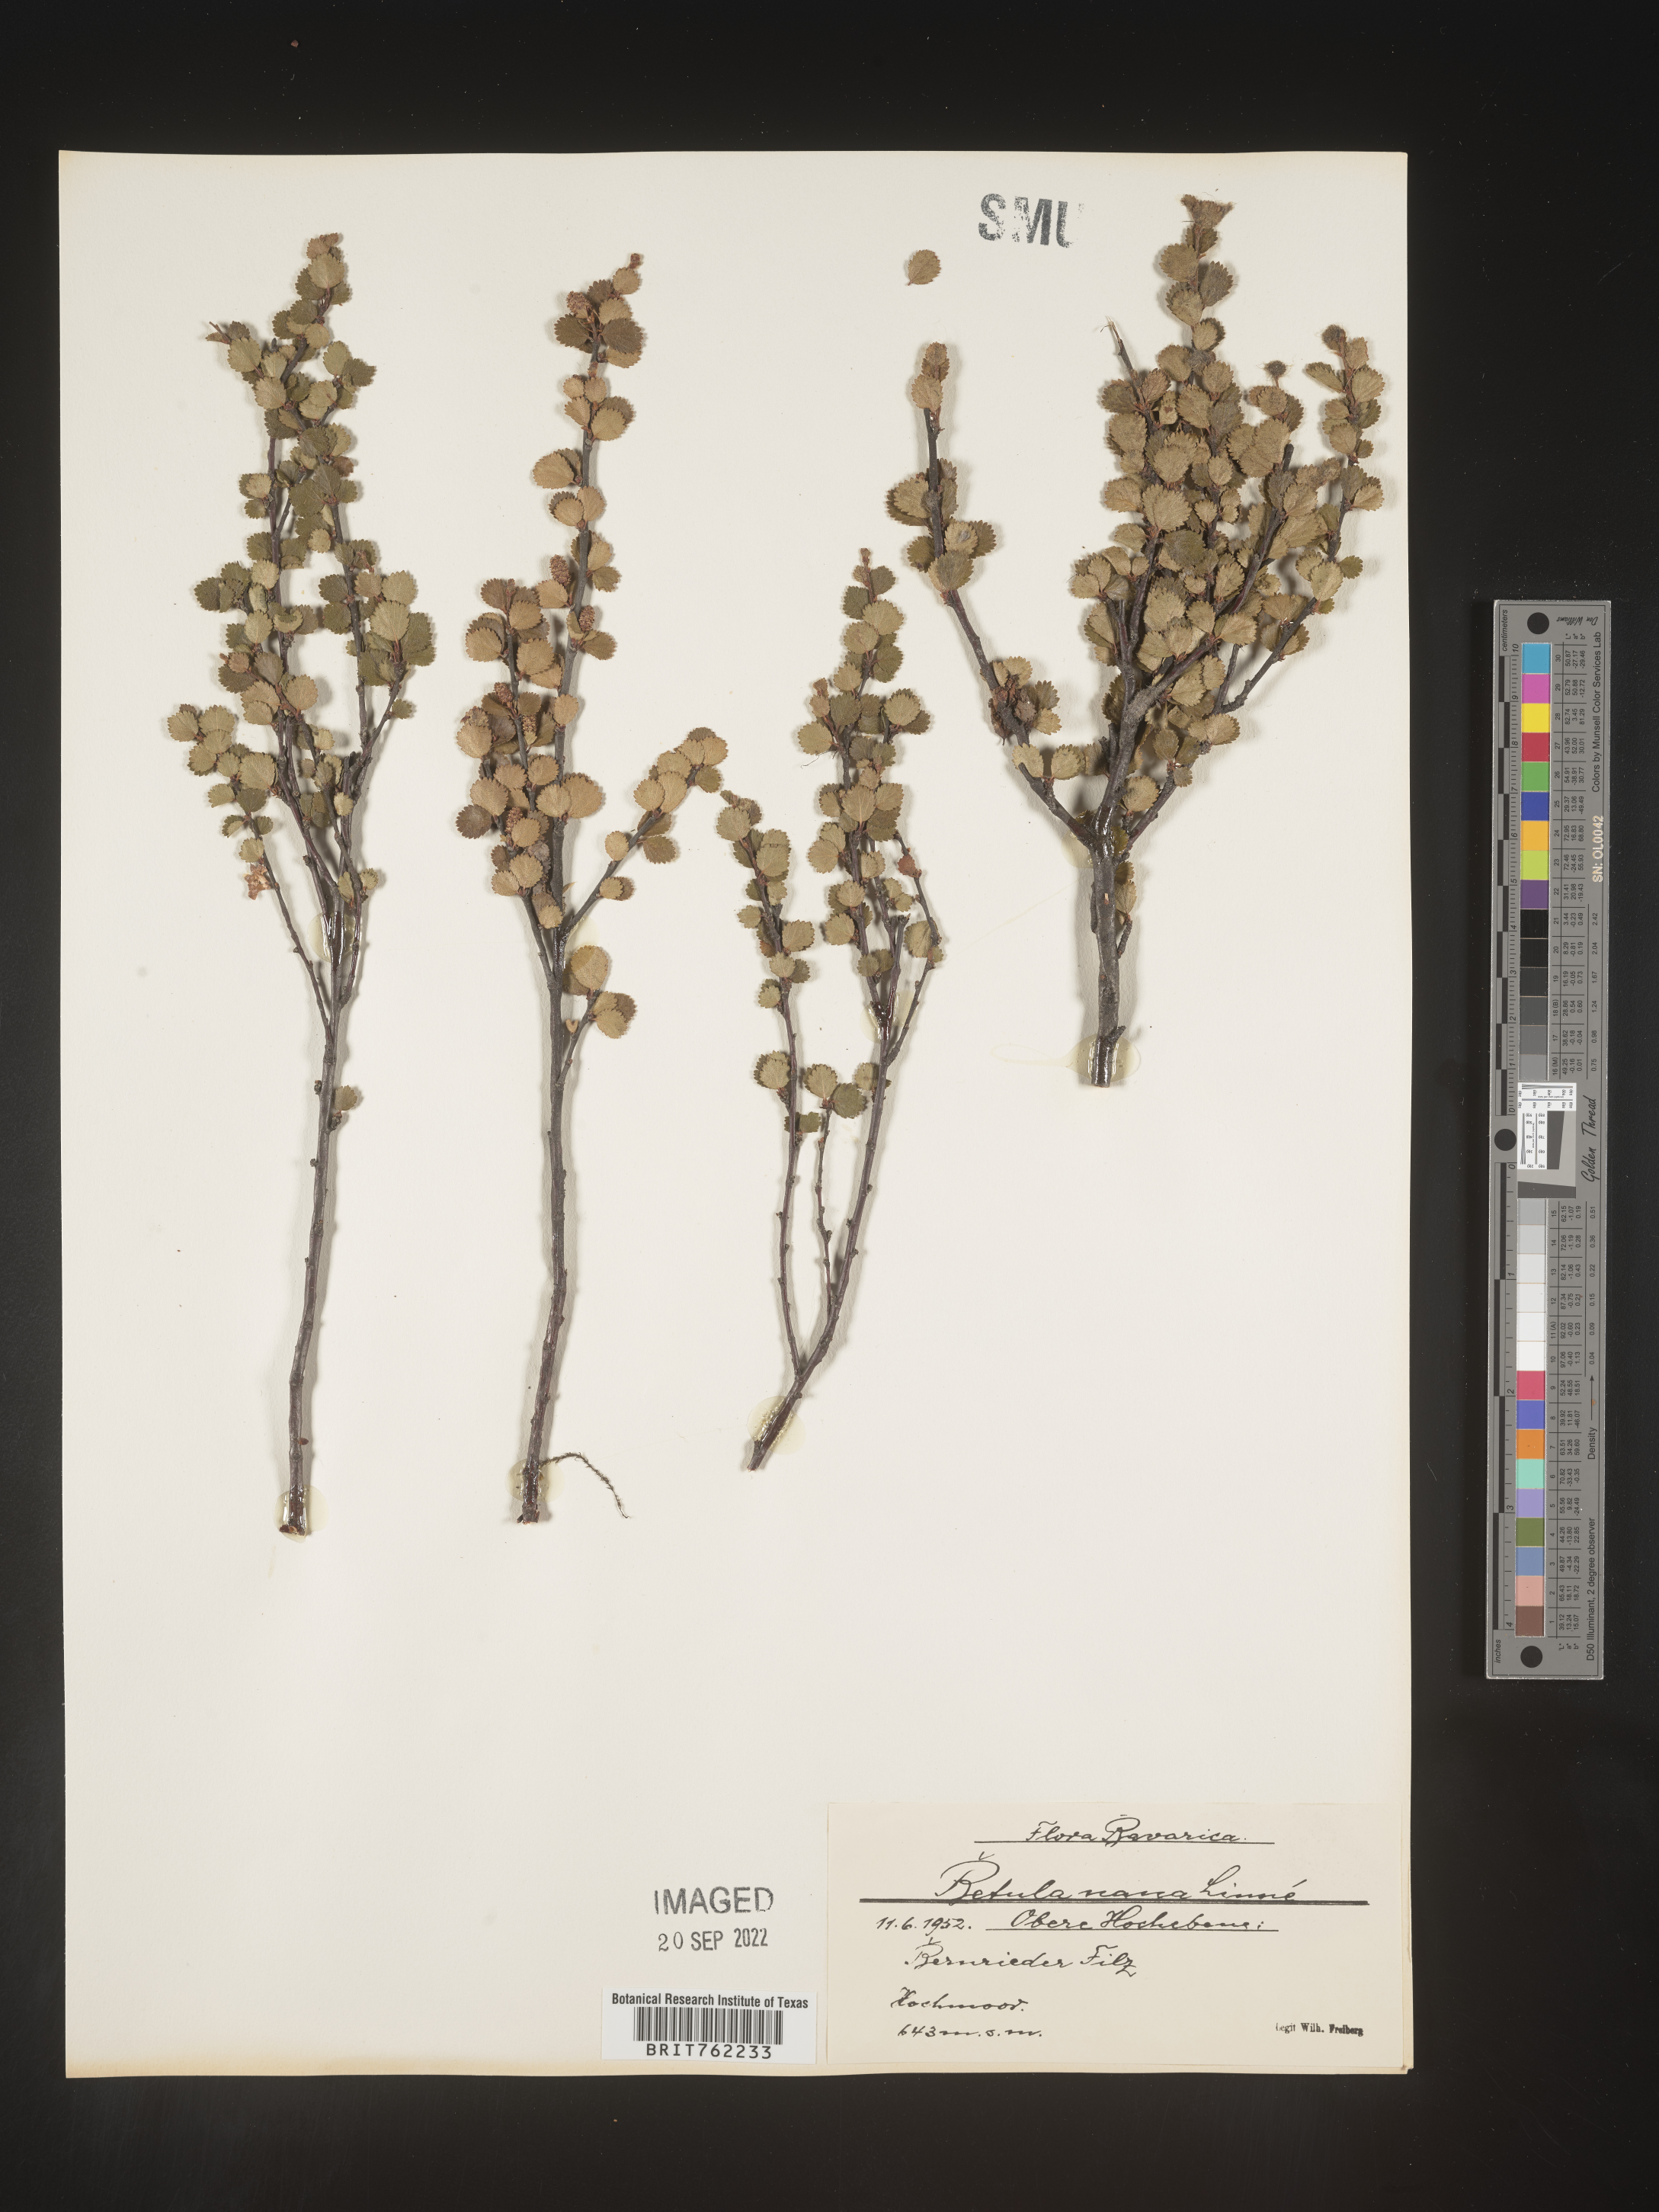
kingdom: Plantae
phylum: Tracheophyta
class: Magnoliopsida
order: Fagales
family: Betulaceae
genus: Betula
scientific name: Betula
